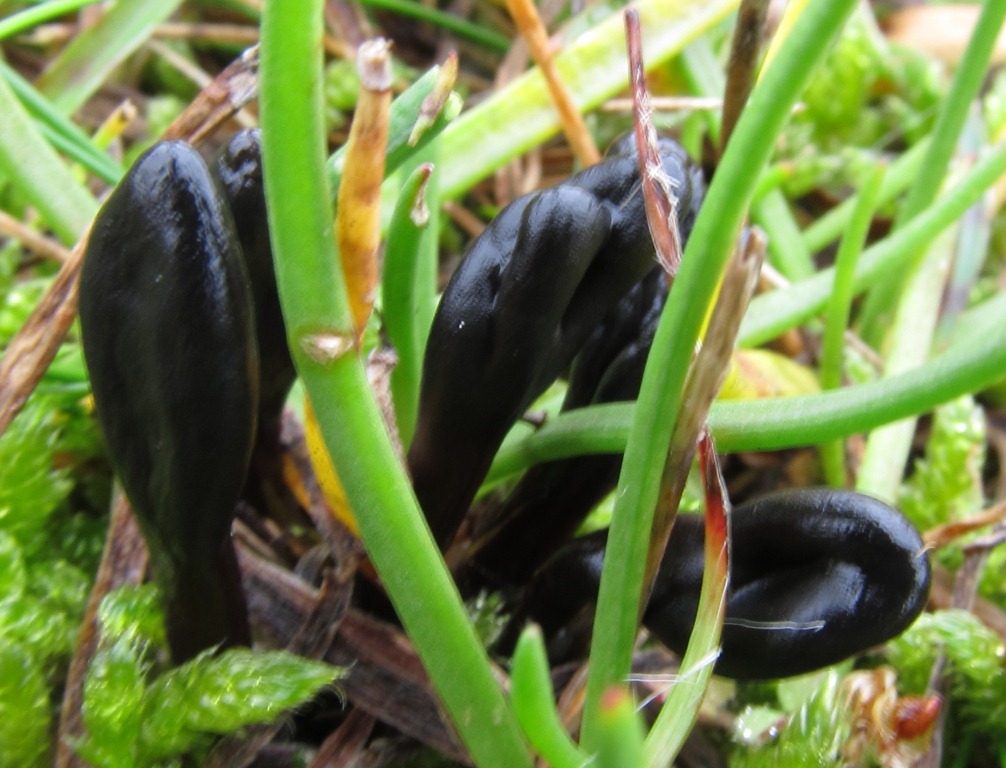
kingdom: Fungi
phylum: Ascomycota
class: Geoglossomycetes
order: Geoglossales
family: Geoglossaceae
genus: Glutinoglossum
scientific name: Glutinoglossum glutinosum
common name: slimet jordtunge
